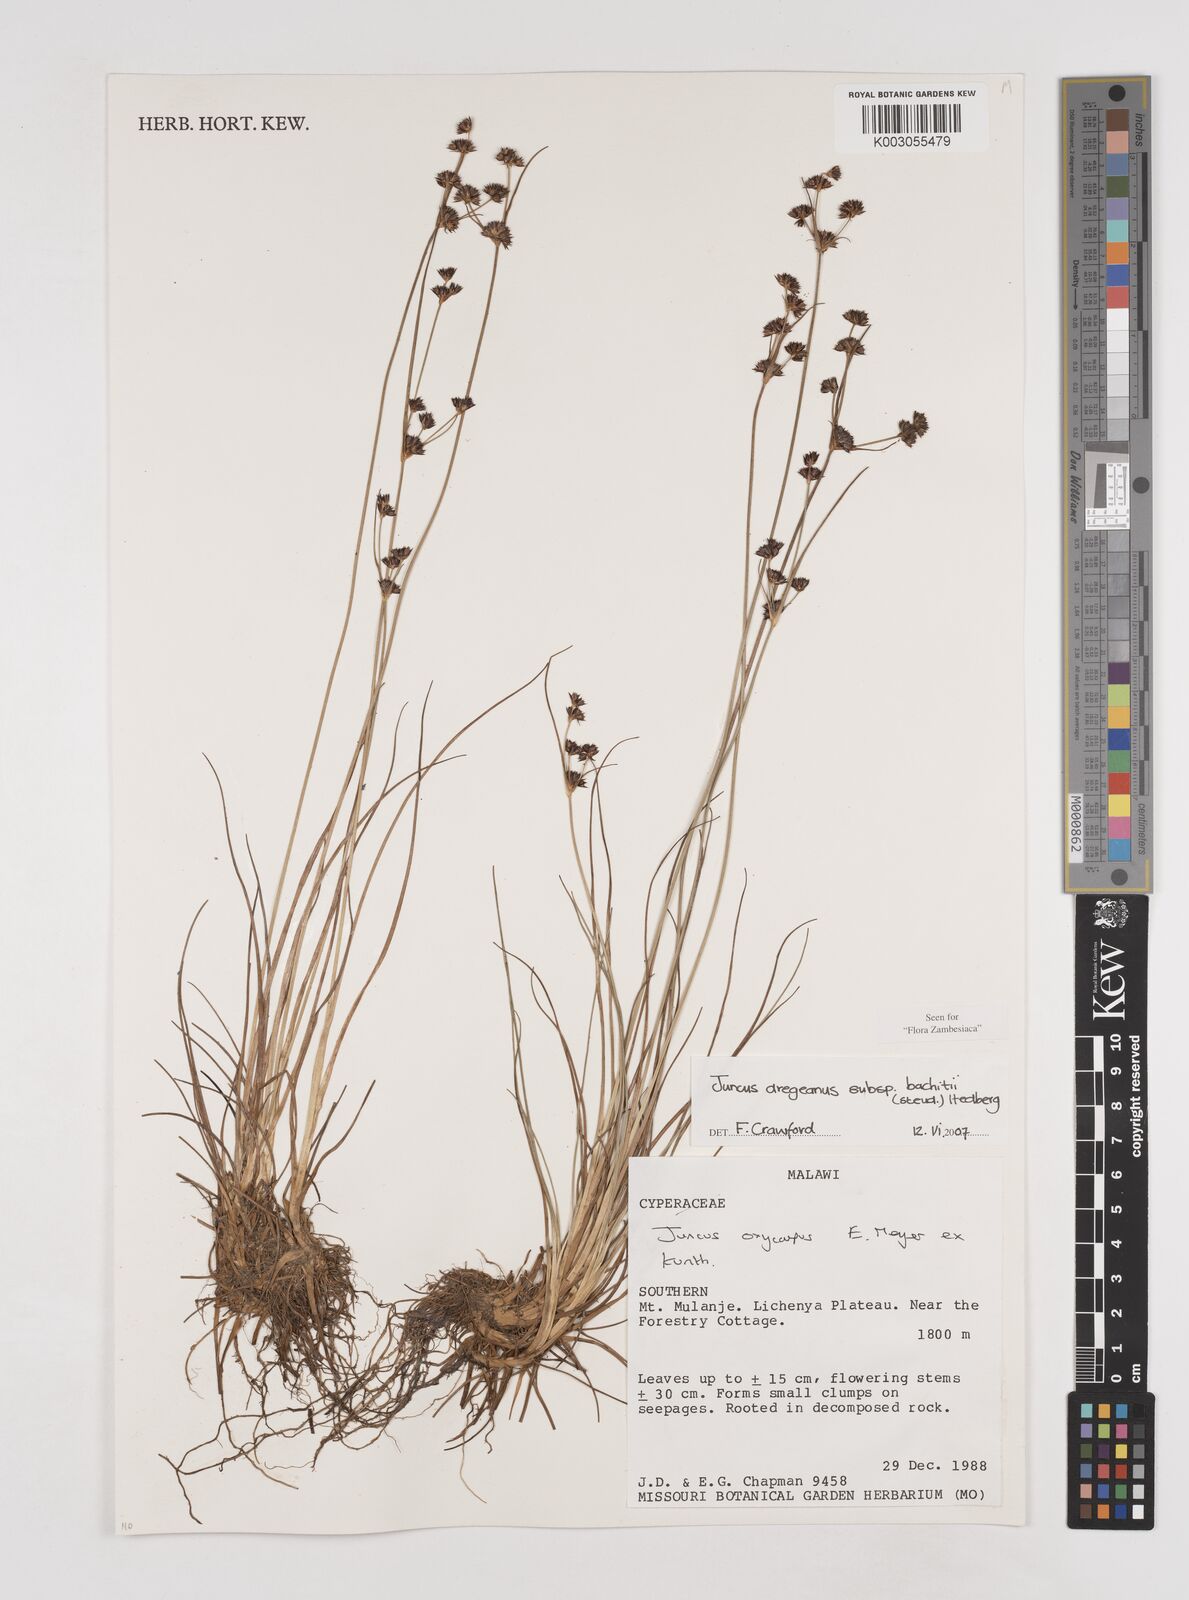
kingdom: Plantae
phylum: Tracheophyta
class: Liliopsida
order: Poales
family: Juncaceae
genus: Juncus
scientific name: Juncus dregeanus
